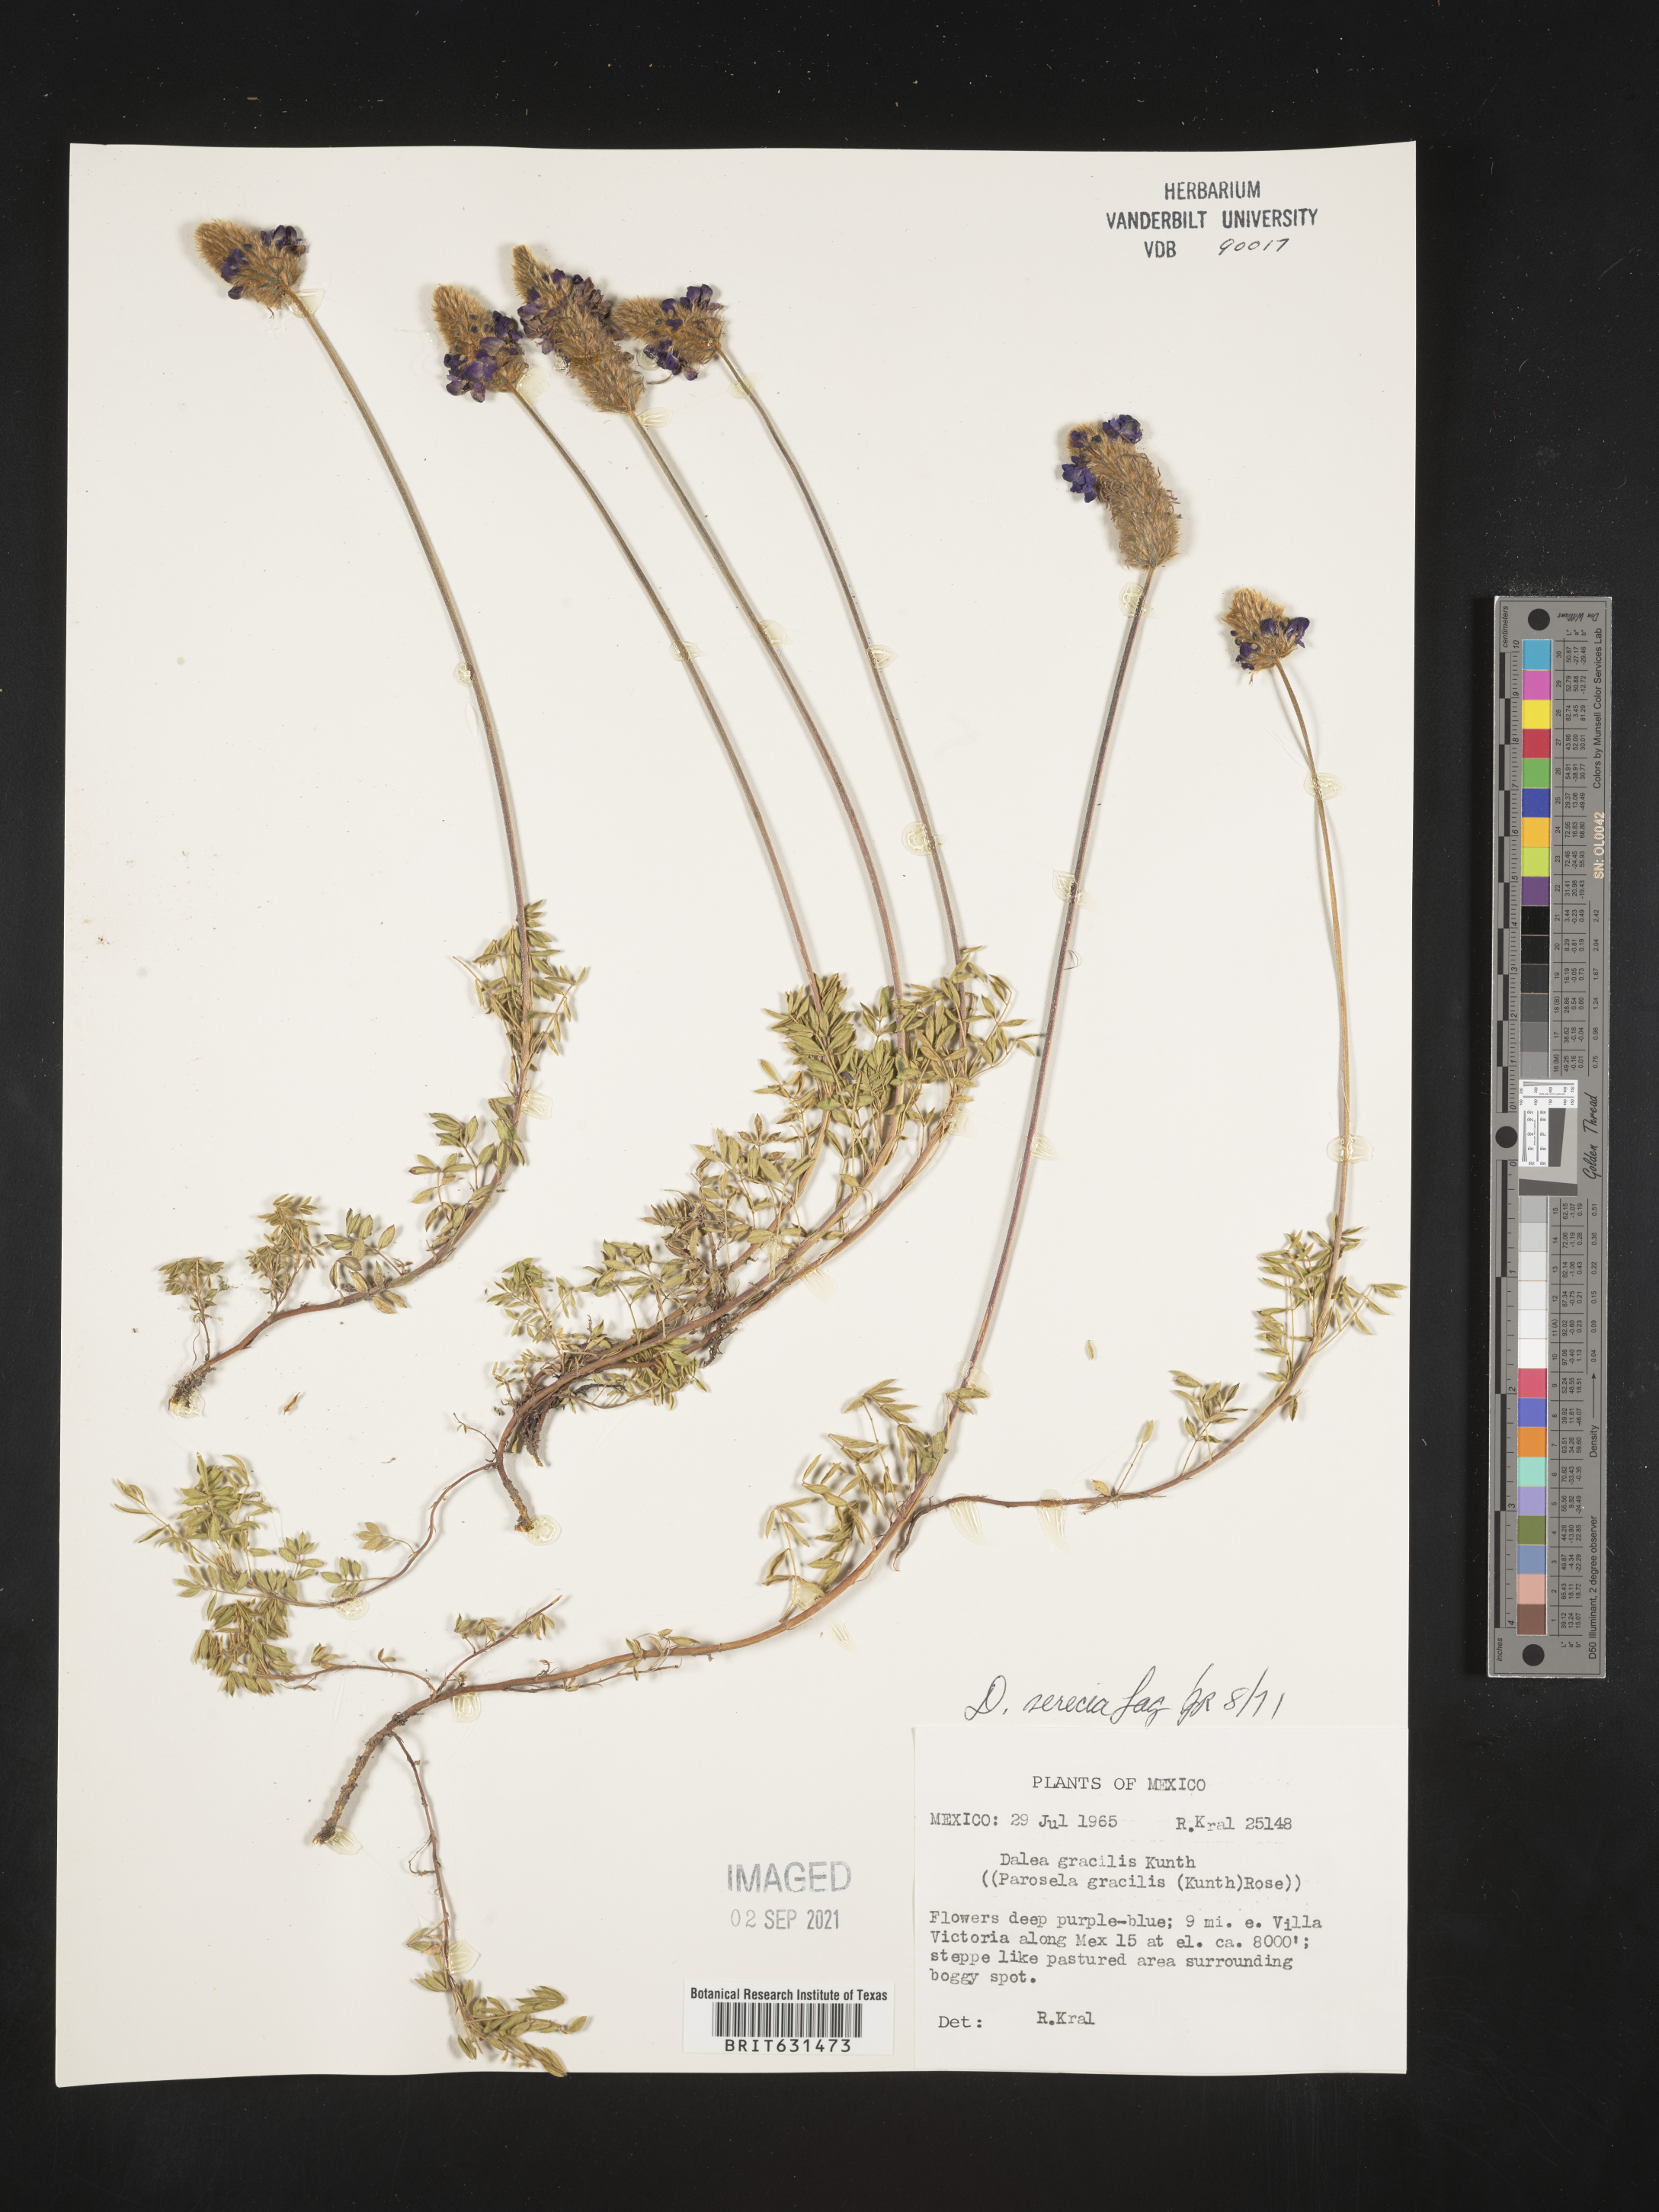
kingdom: Plantae
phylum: Tracheophyta
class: Magnoliopsida
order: Fabales
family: Fabaceae
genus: Dalea
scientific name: Dalea sericea
